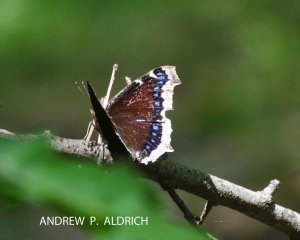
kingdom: Animalia
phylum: Arthropoda
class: Insecta
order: Lepidoptera
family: Nymphalidae
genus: Nymphalis
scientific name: Nymphalis antiopa
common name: Mourning Cloak
